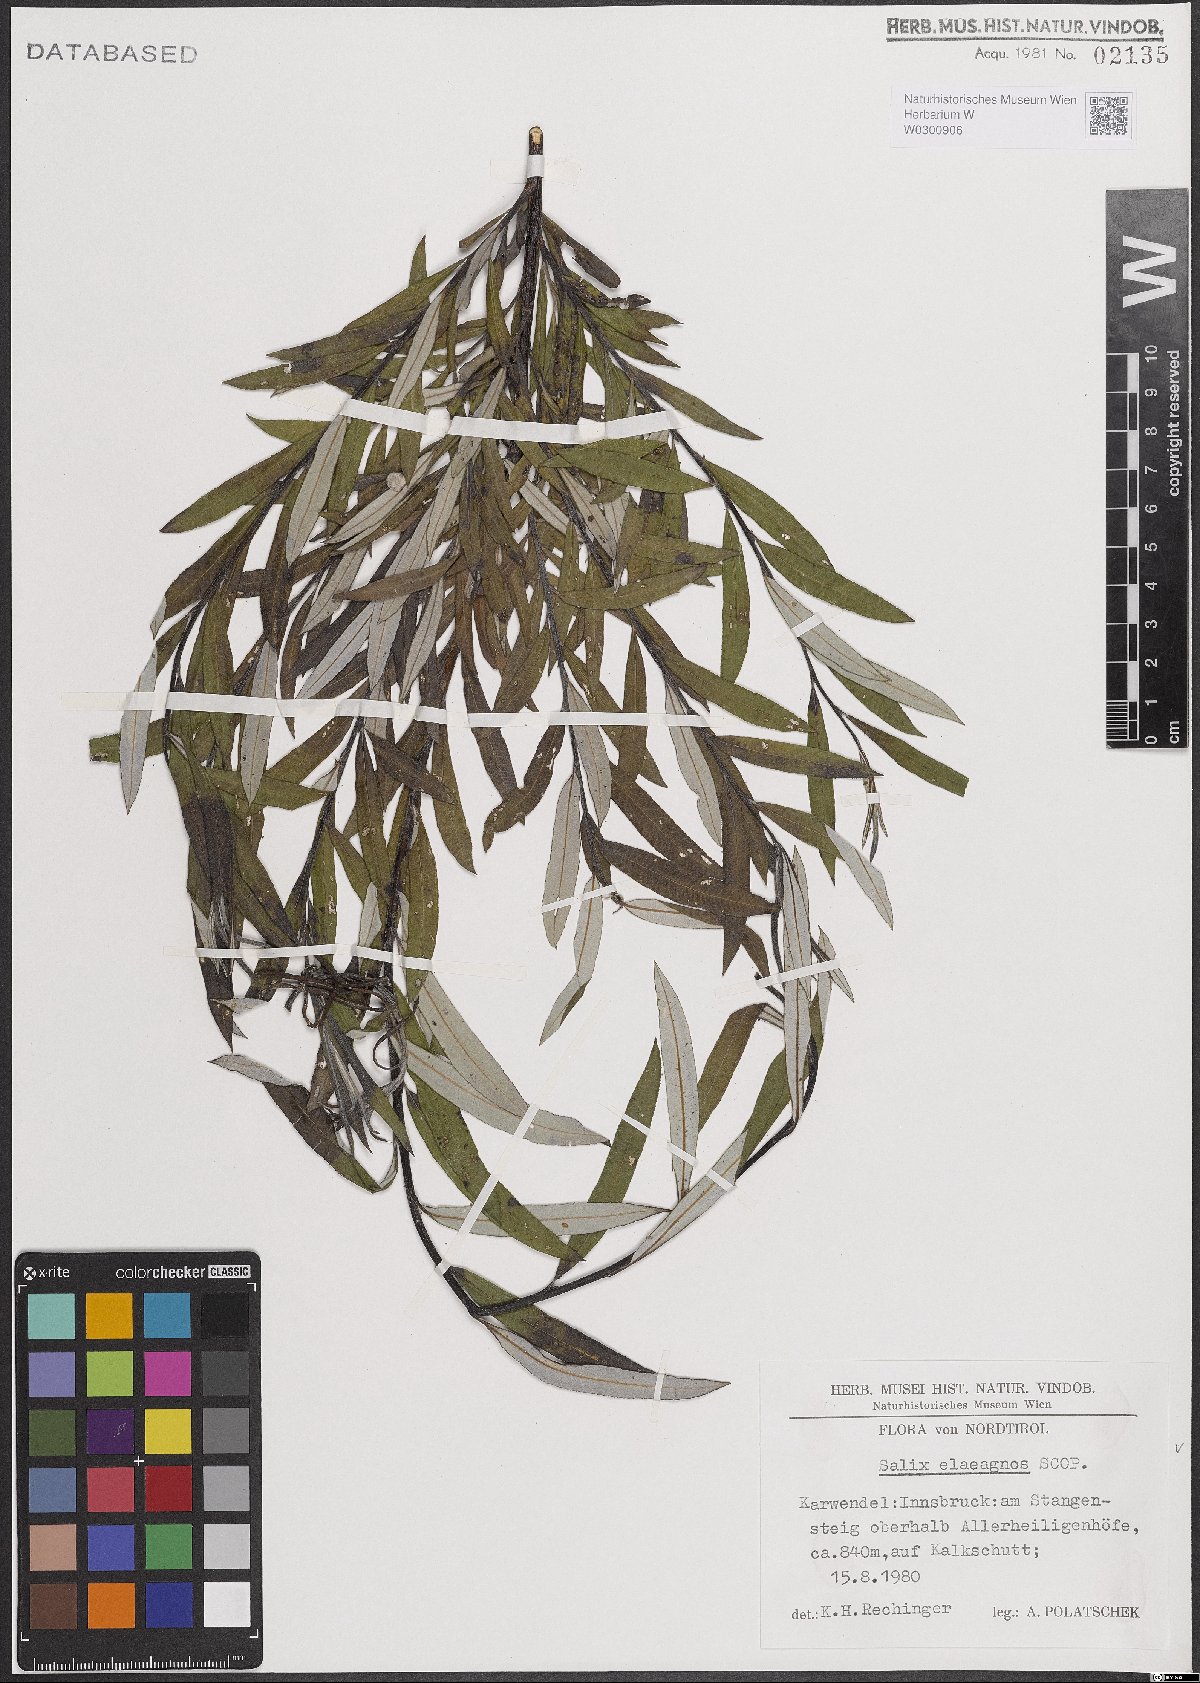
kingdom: Plantae
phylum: Tracheophyta
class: Magnoliopsida
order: Malpighiales
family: Salicaceae
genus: Salix
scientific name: Salix eleagnos
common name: Elaeagnus willow
